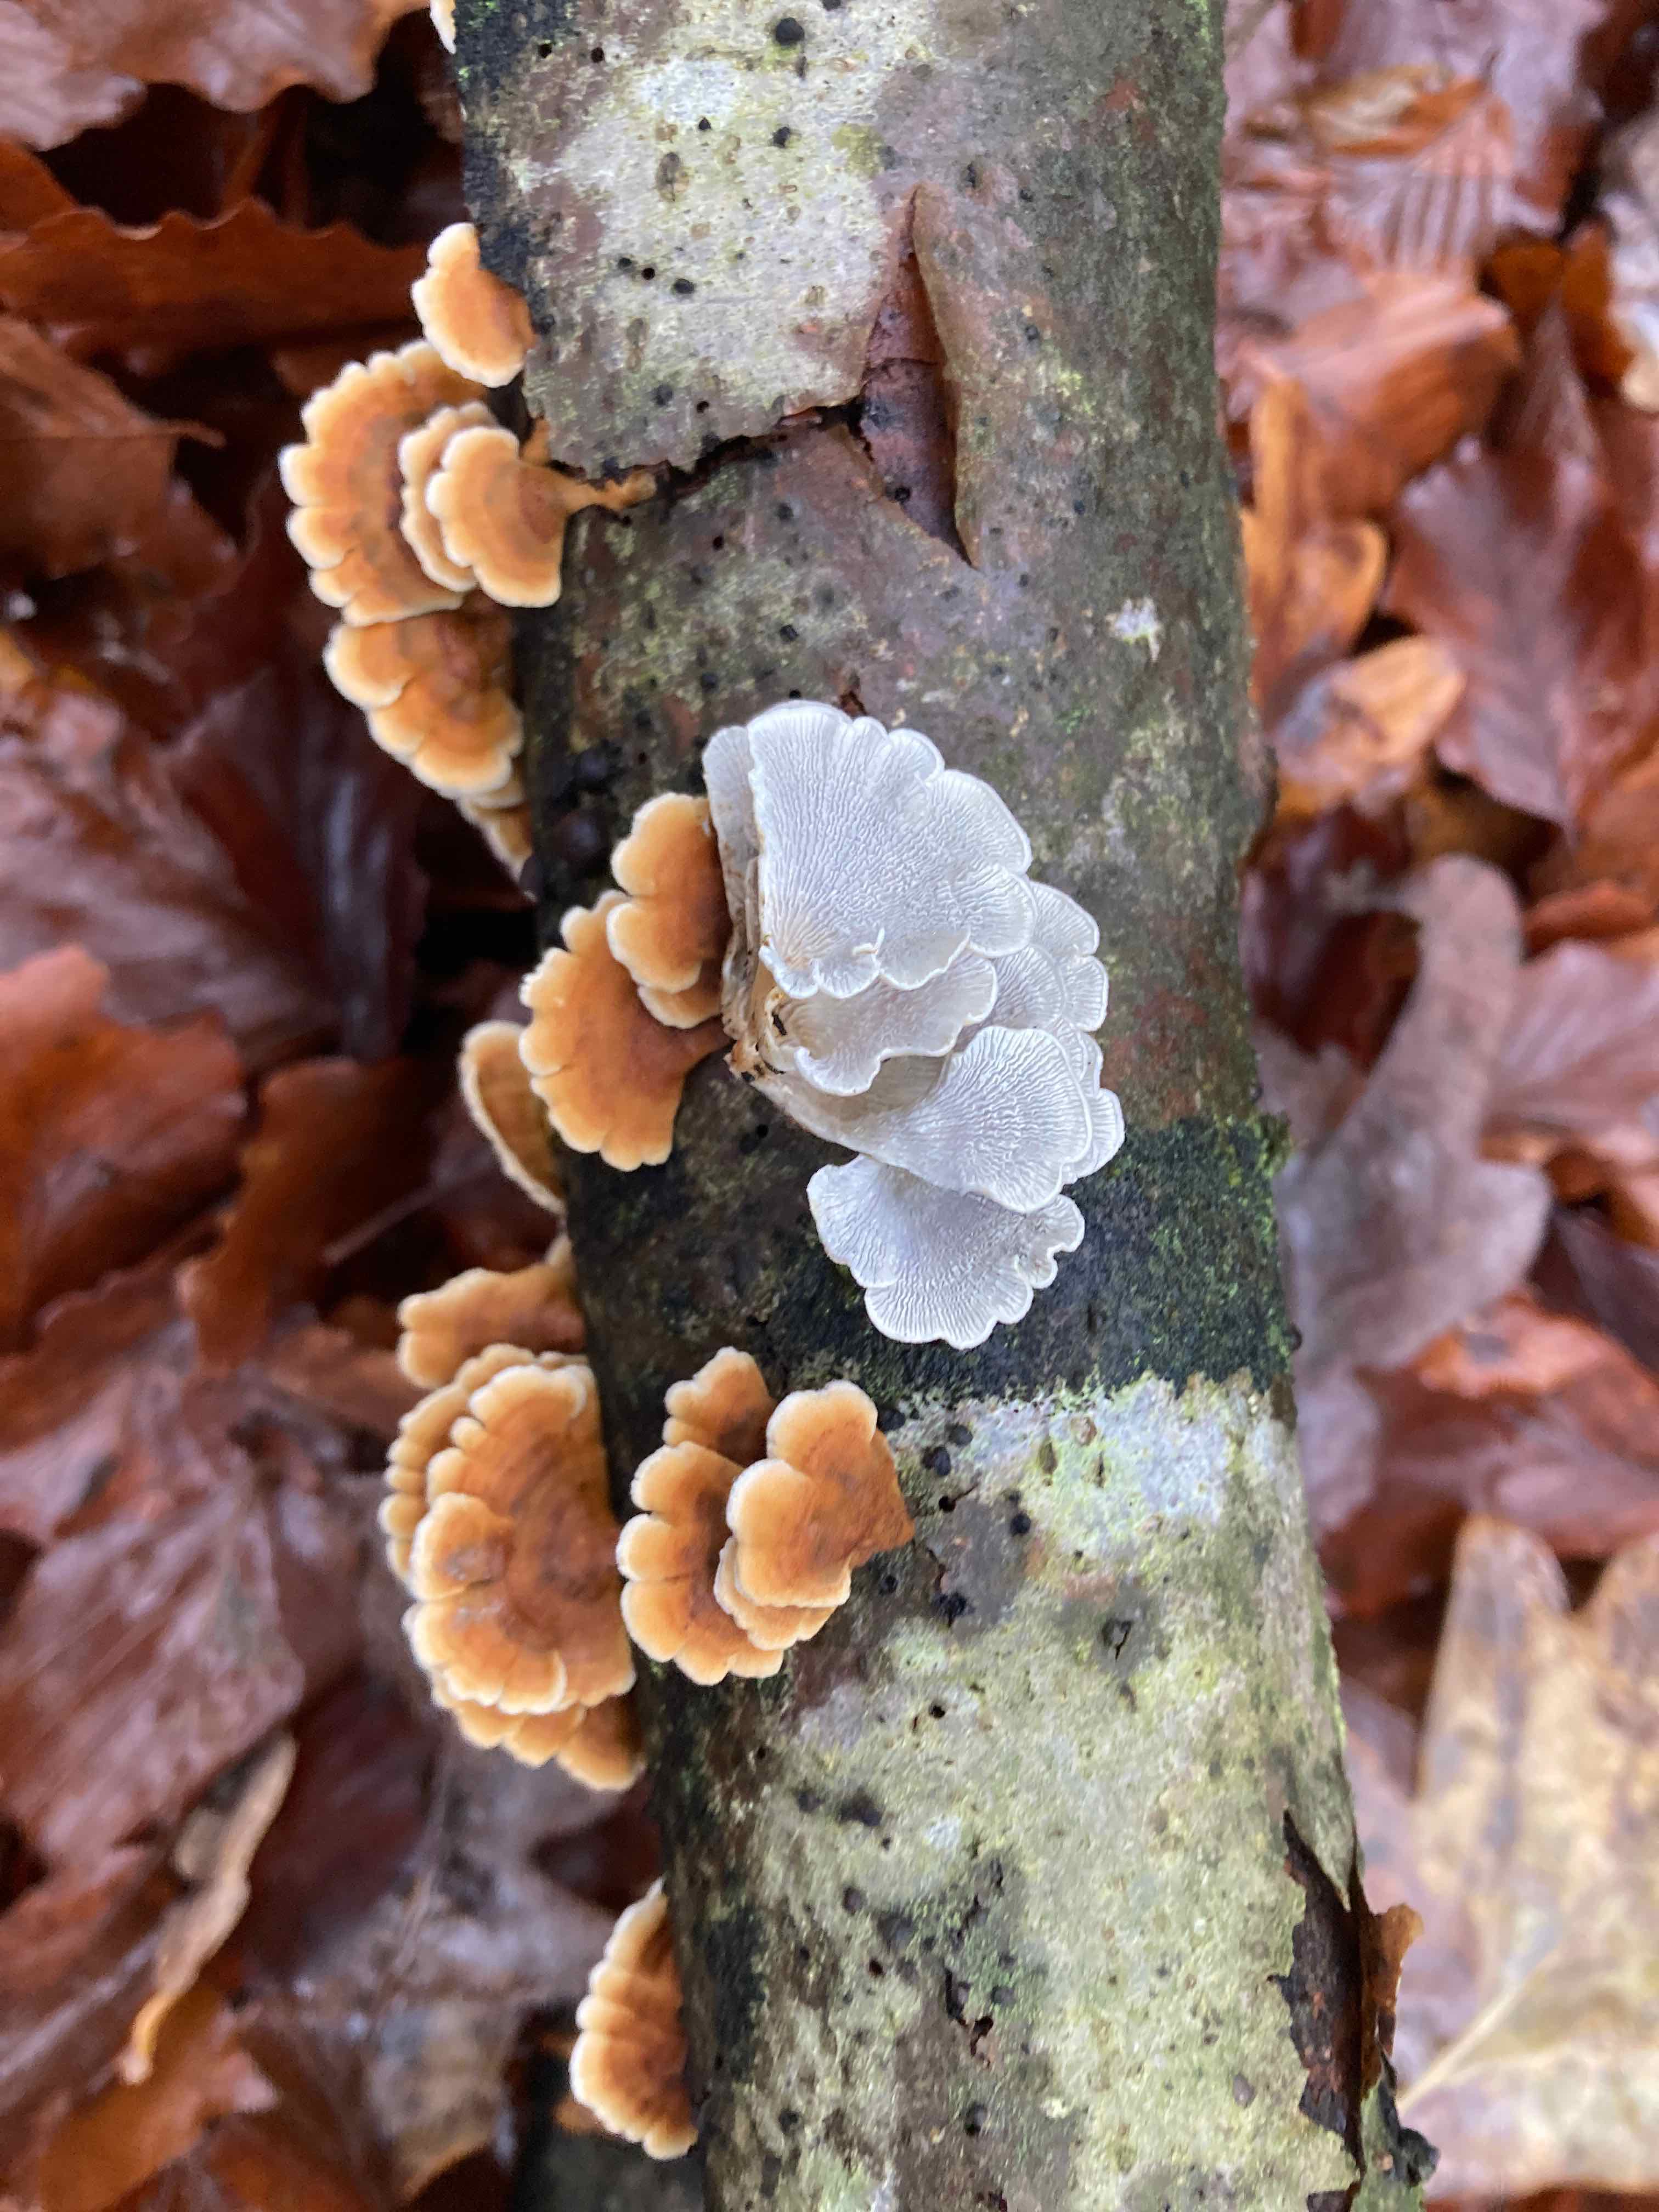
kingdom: Fungi
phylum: Basidiomycota
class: Agaricomycetes
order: Amylocorticiales
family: Amylocorticiaceae
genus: Plicaturopsis
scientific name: Plicaturopsis crispa
